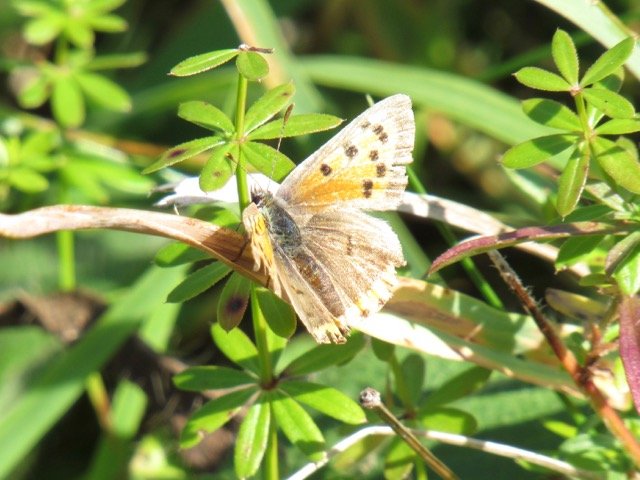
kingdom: Animalia
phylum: Arthropoda
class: Insecta
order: Lepidoptera
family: Lycaenidae
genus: Lycaena
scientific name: Lycaena phlaeas
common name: American Copper
